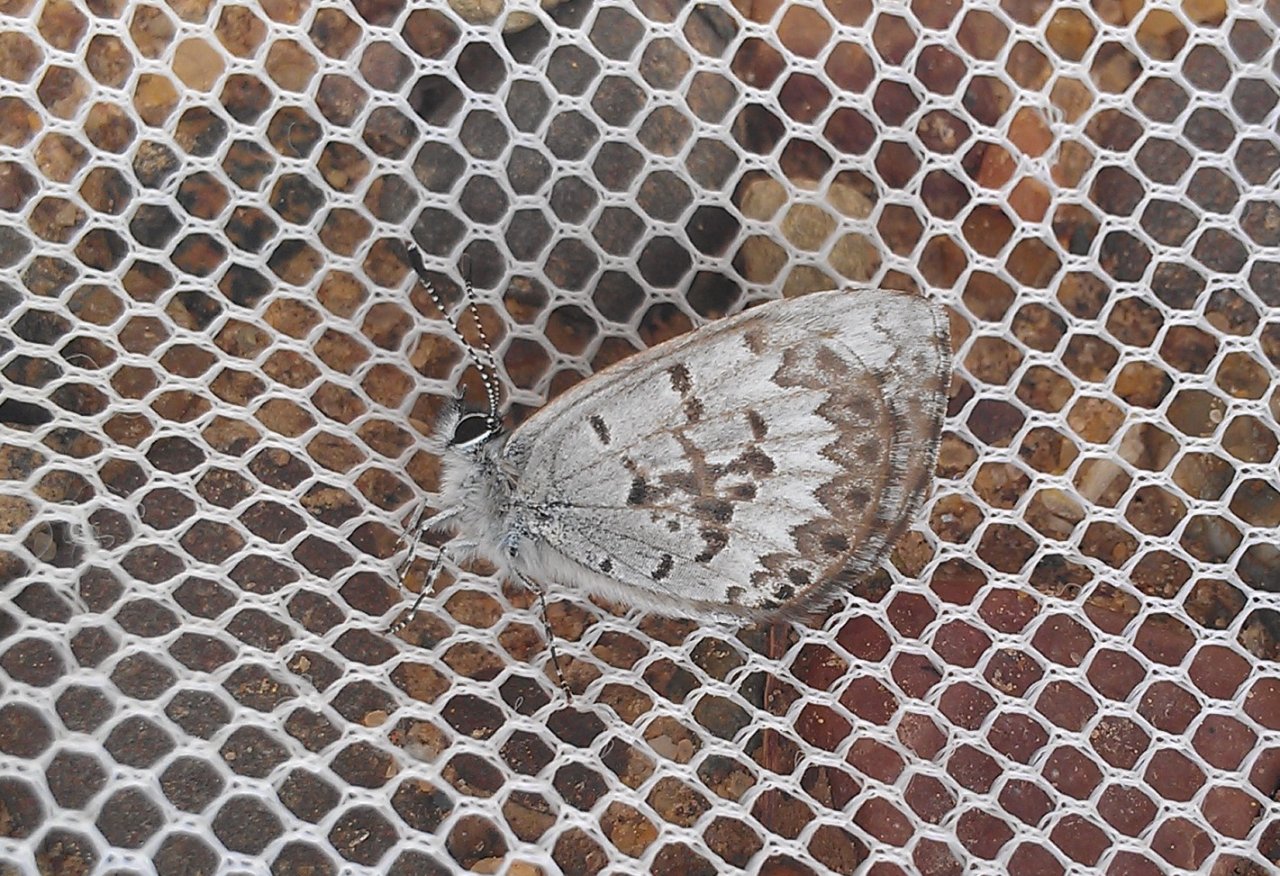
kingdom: Animalia
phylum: Arthropoda
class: Insecta
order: Lepidoptera
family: Lycaenidae
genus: Celastrina
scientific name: Celastrina lucia
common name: Northern Spring Azure
